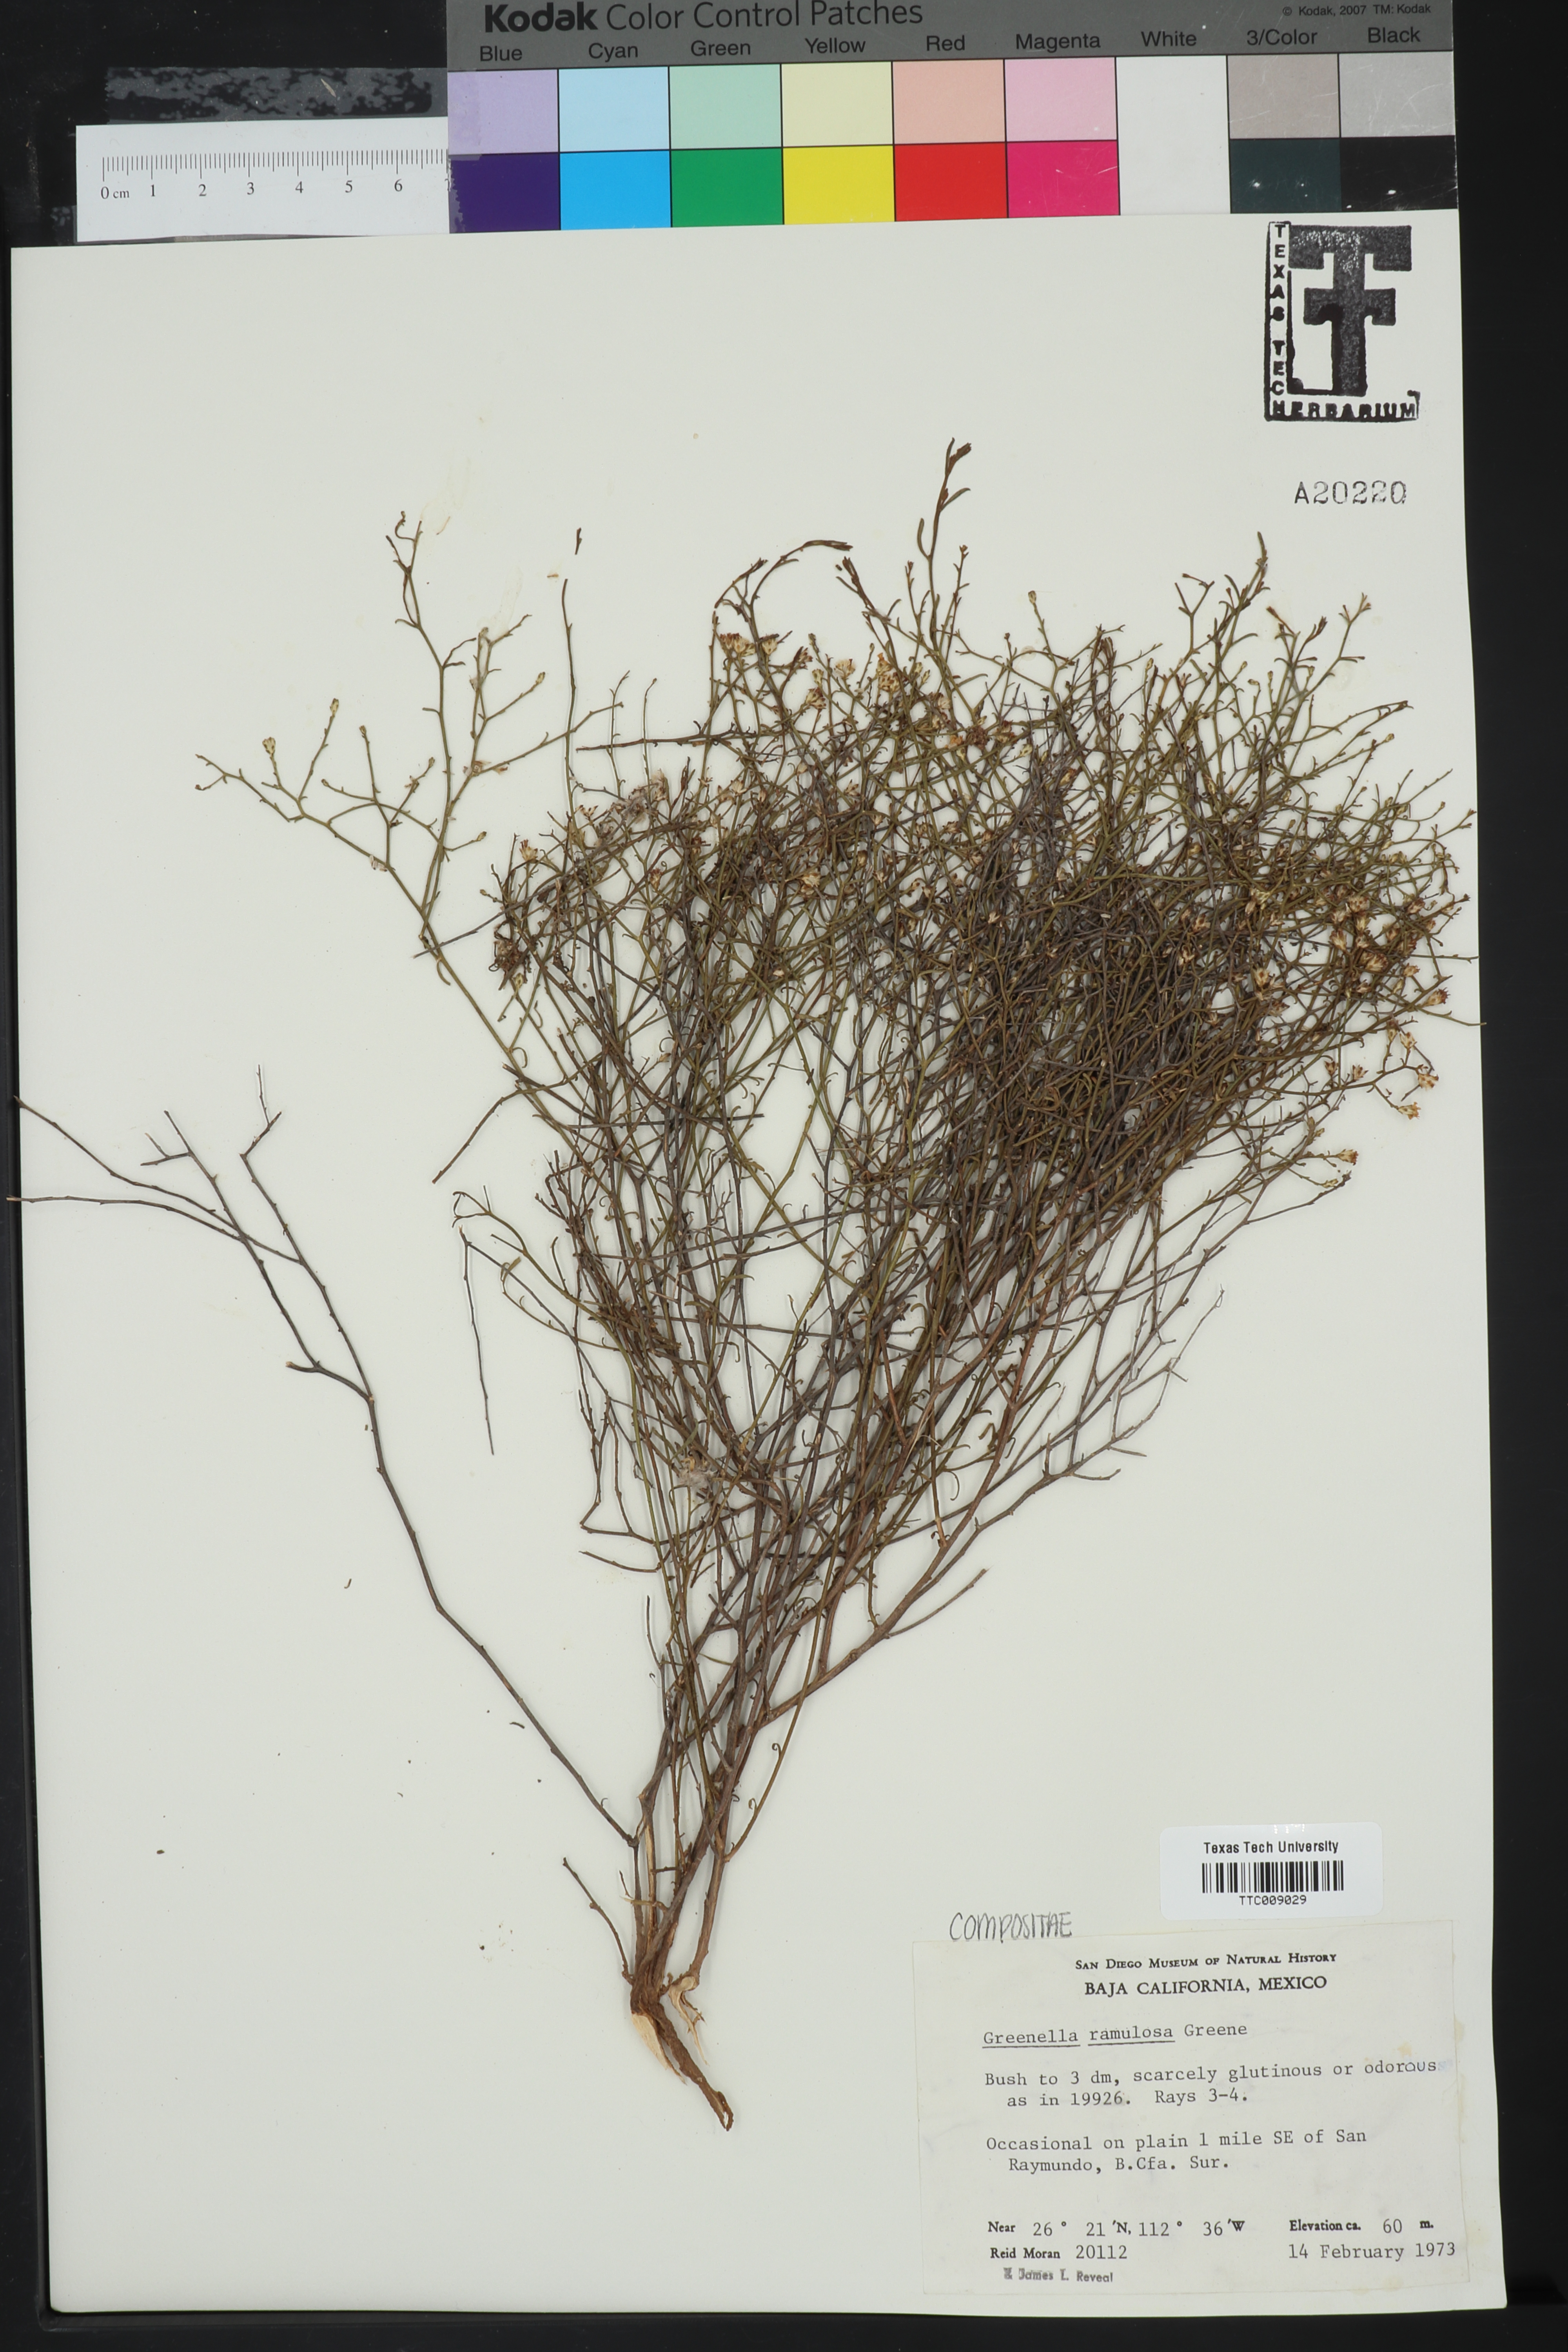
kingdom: Plantae
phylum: Tracheophyta
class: Magnoliopsida
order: Asterales
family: Asteraceae
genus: Gutierrezia
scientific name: Gutierrezia ramulosa
